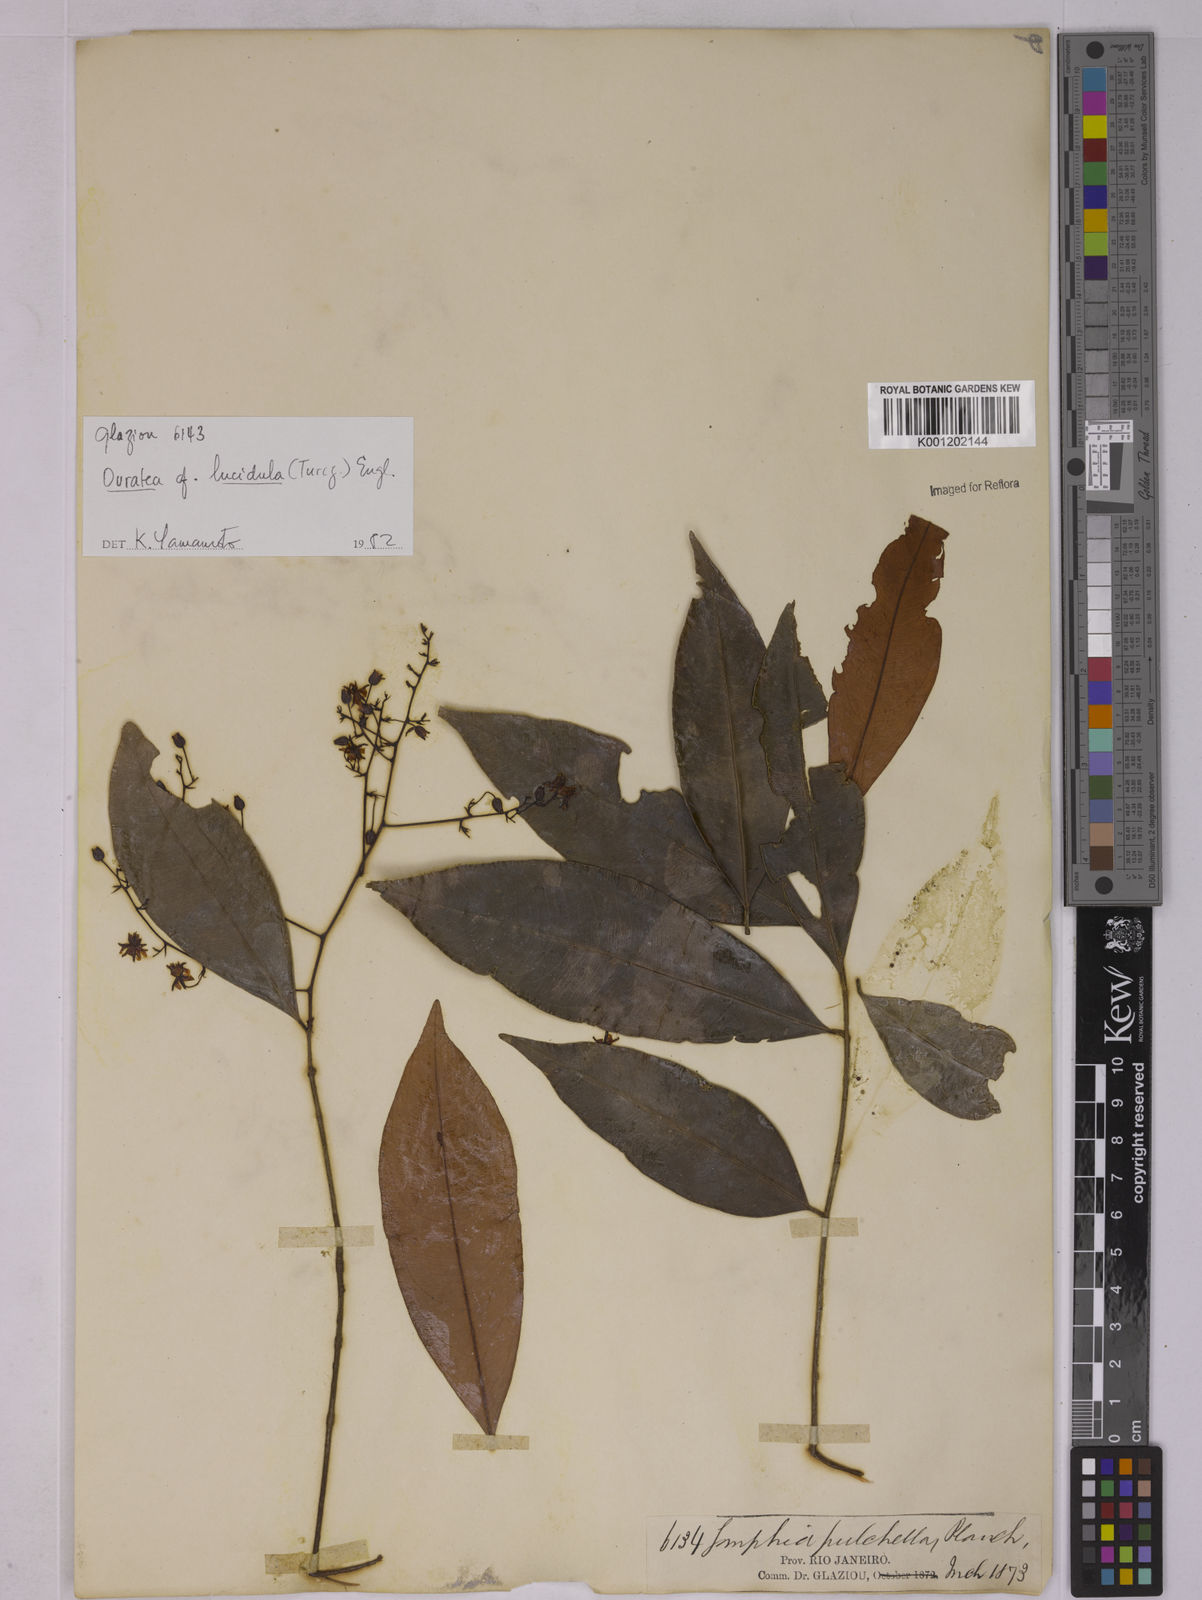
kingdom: Plantae
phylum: Tracheophyta
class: Magnoliopsida
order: Malpighiales
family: Ochnaceae
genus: Ouratea
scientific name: Ouratea parviflora
